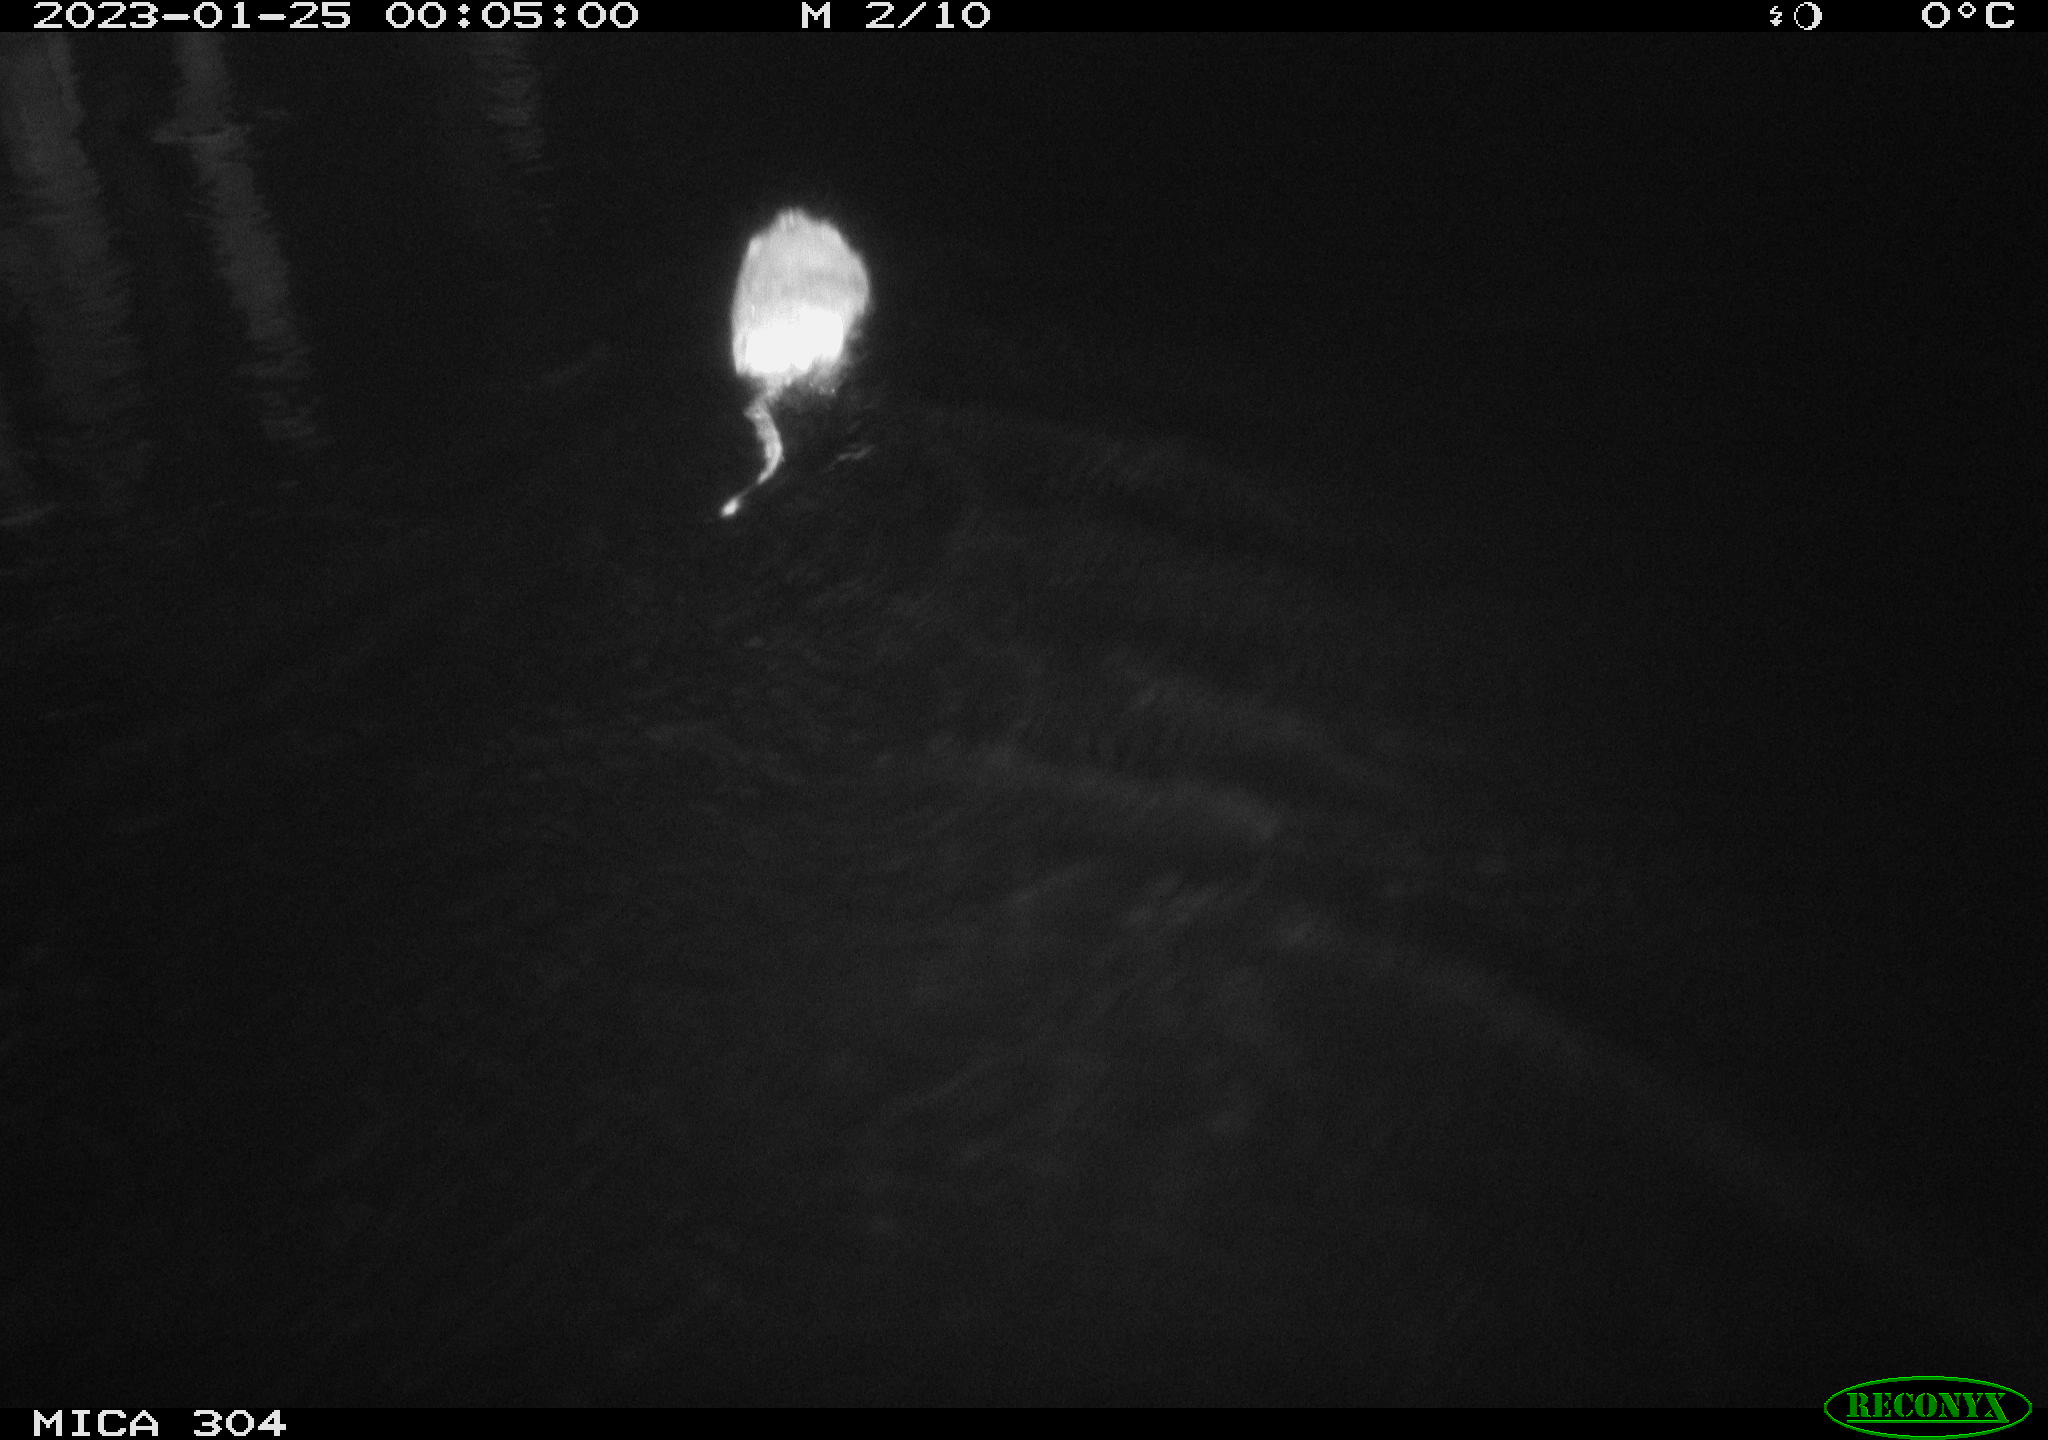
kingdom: Animalia
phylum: Chordata
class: Mammalia
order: Rodentia
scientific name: Rodentia
